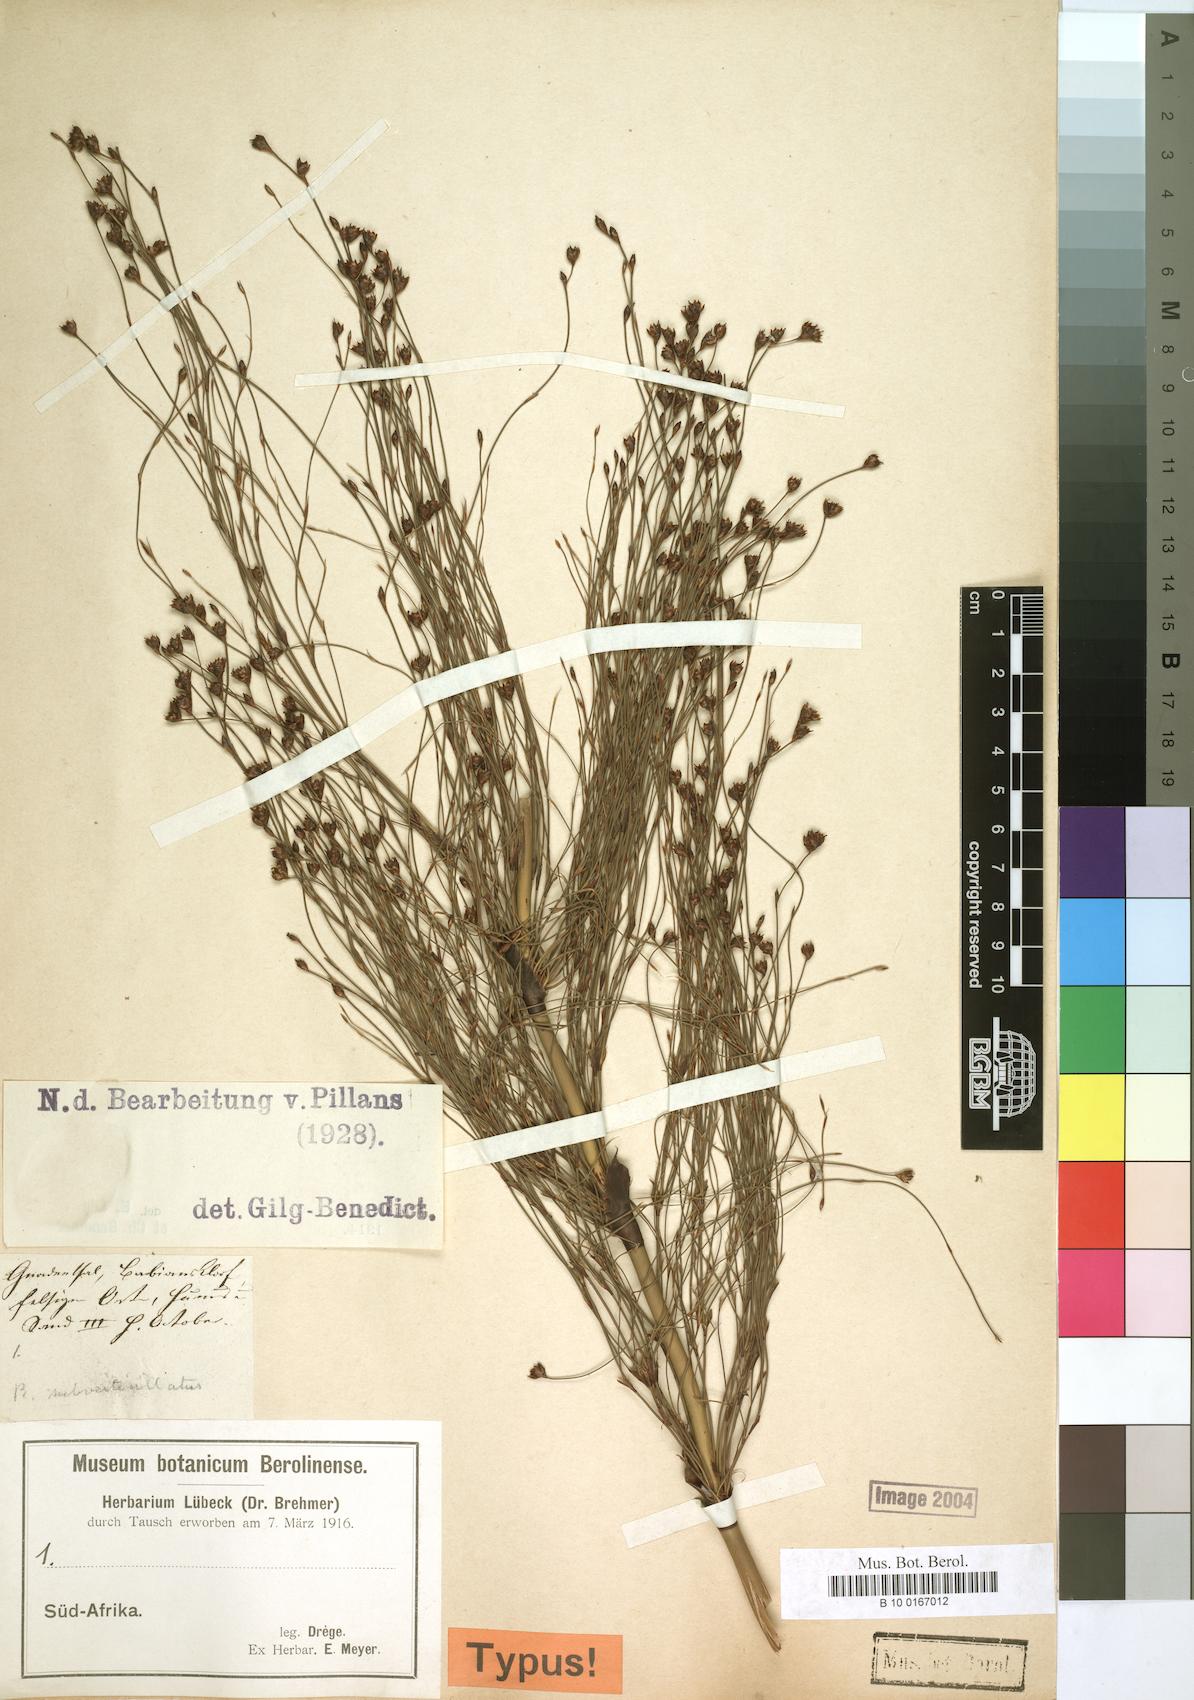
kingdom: Plantae
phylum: Tracheophyta
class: Liliopsida
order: Poales
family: Restionaceae
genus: Restio
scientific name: Restio subverticillatus
